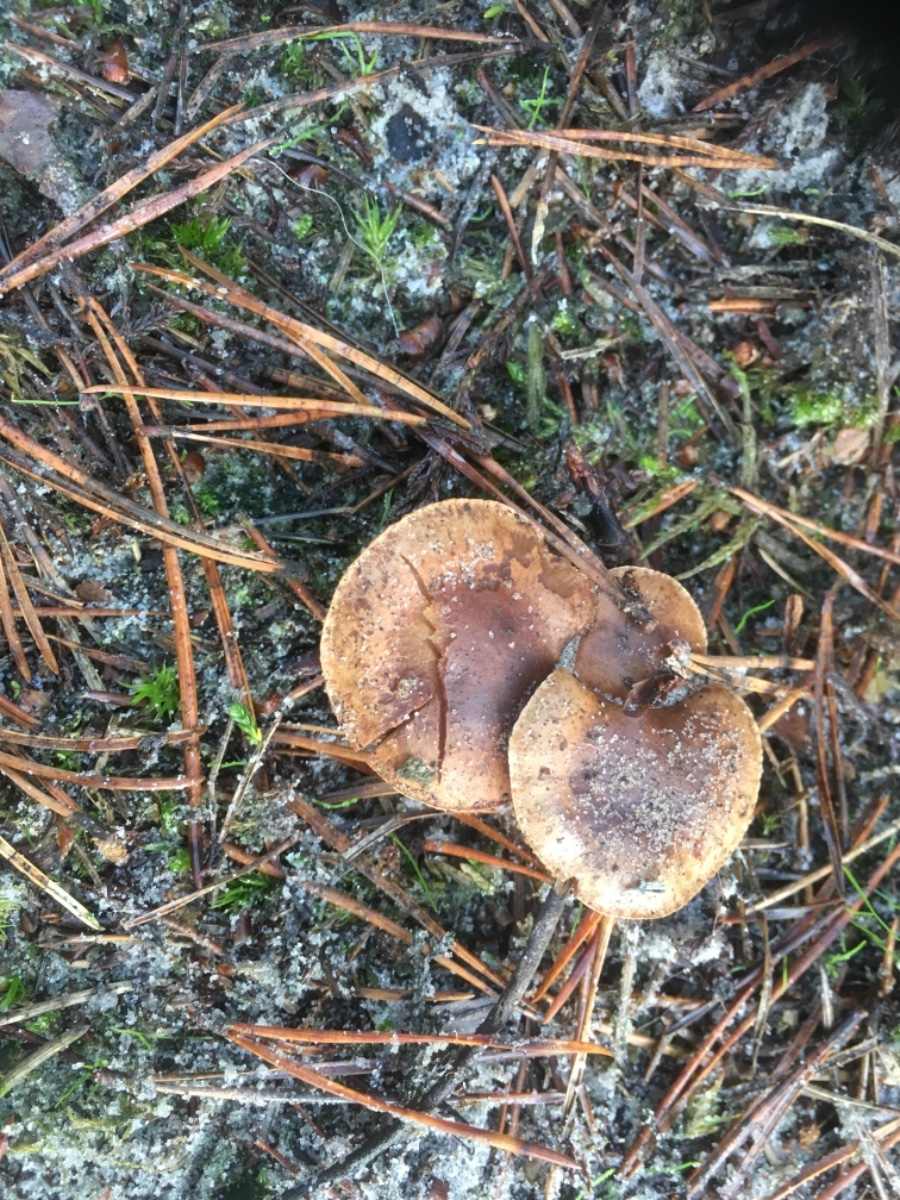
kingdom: Fungi
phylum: Basidiomycota
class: Agaricomycetes
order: Agaricales
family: Cortinariaceae
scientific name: Cortinariaceae
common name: slørhatfamilien
